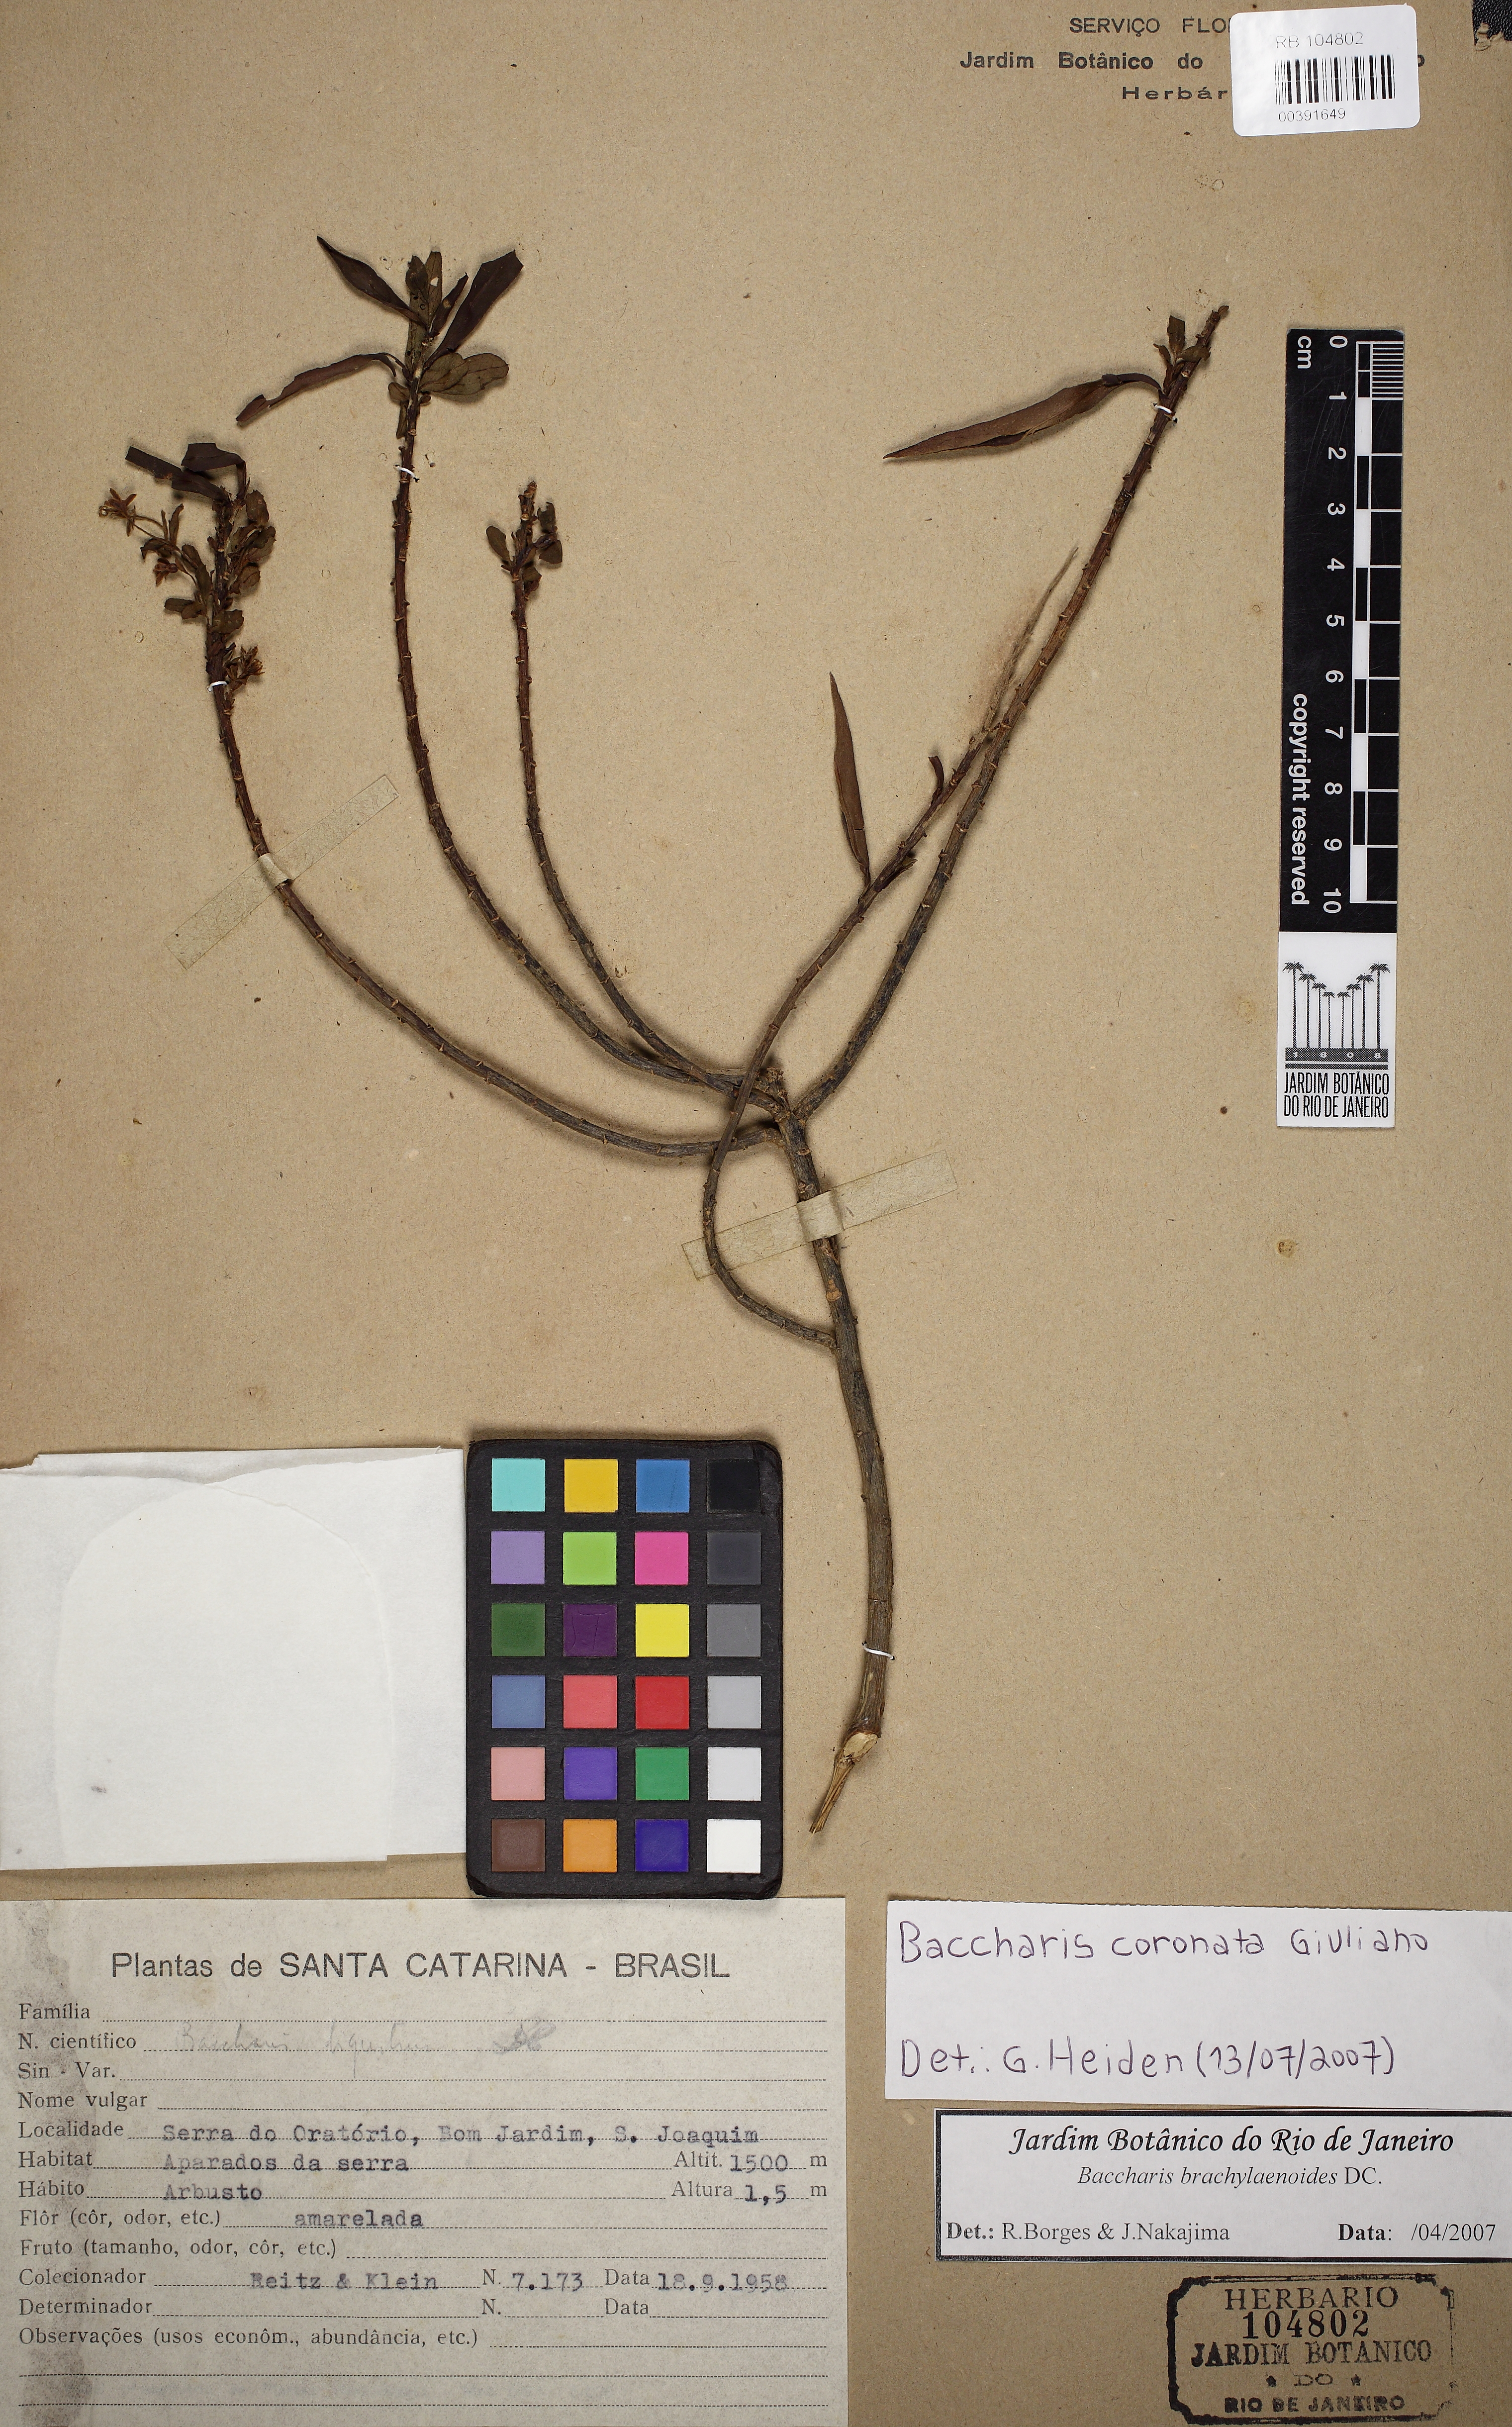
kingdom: Plantae
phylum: Tracheophyta
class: Magnoliopsida
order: Asterales
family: Asteraceae
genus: Baccharis
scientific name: Baccharis coronata
